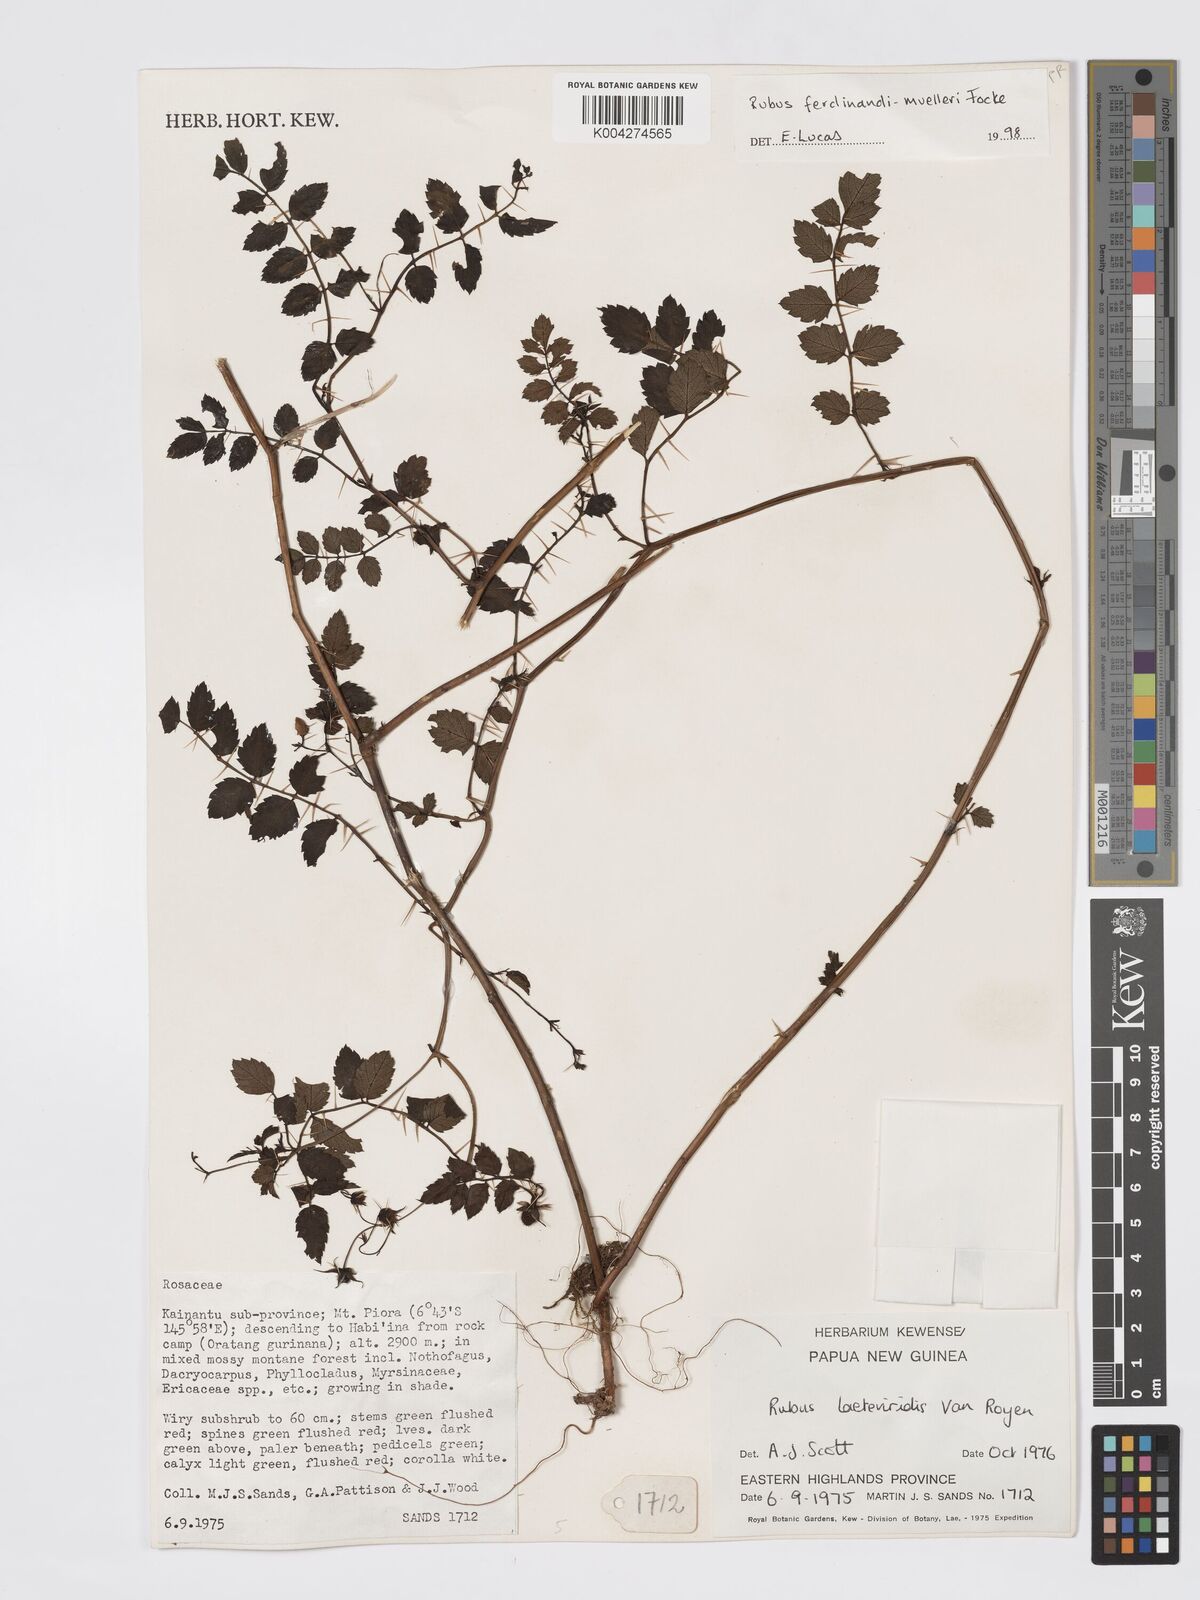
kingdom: Plantae
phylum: Tracheophyta
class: Magnoliopsida
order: Rosales
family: Rosaceae
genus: Rubus
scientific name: Rubus ferdinandimuelleri
